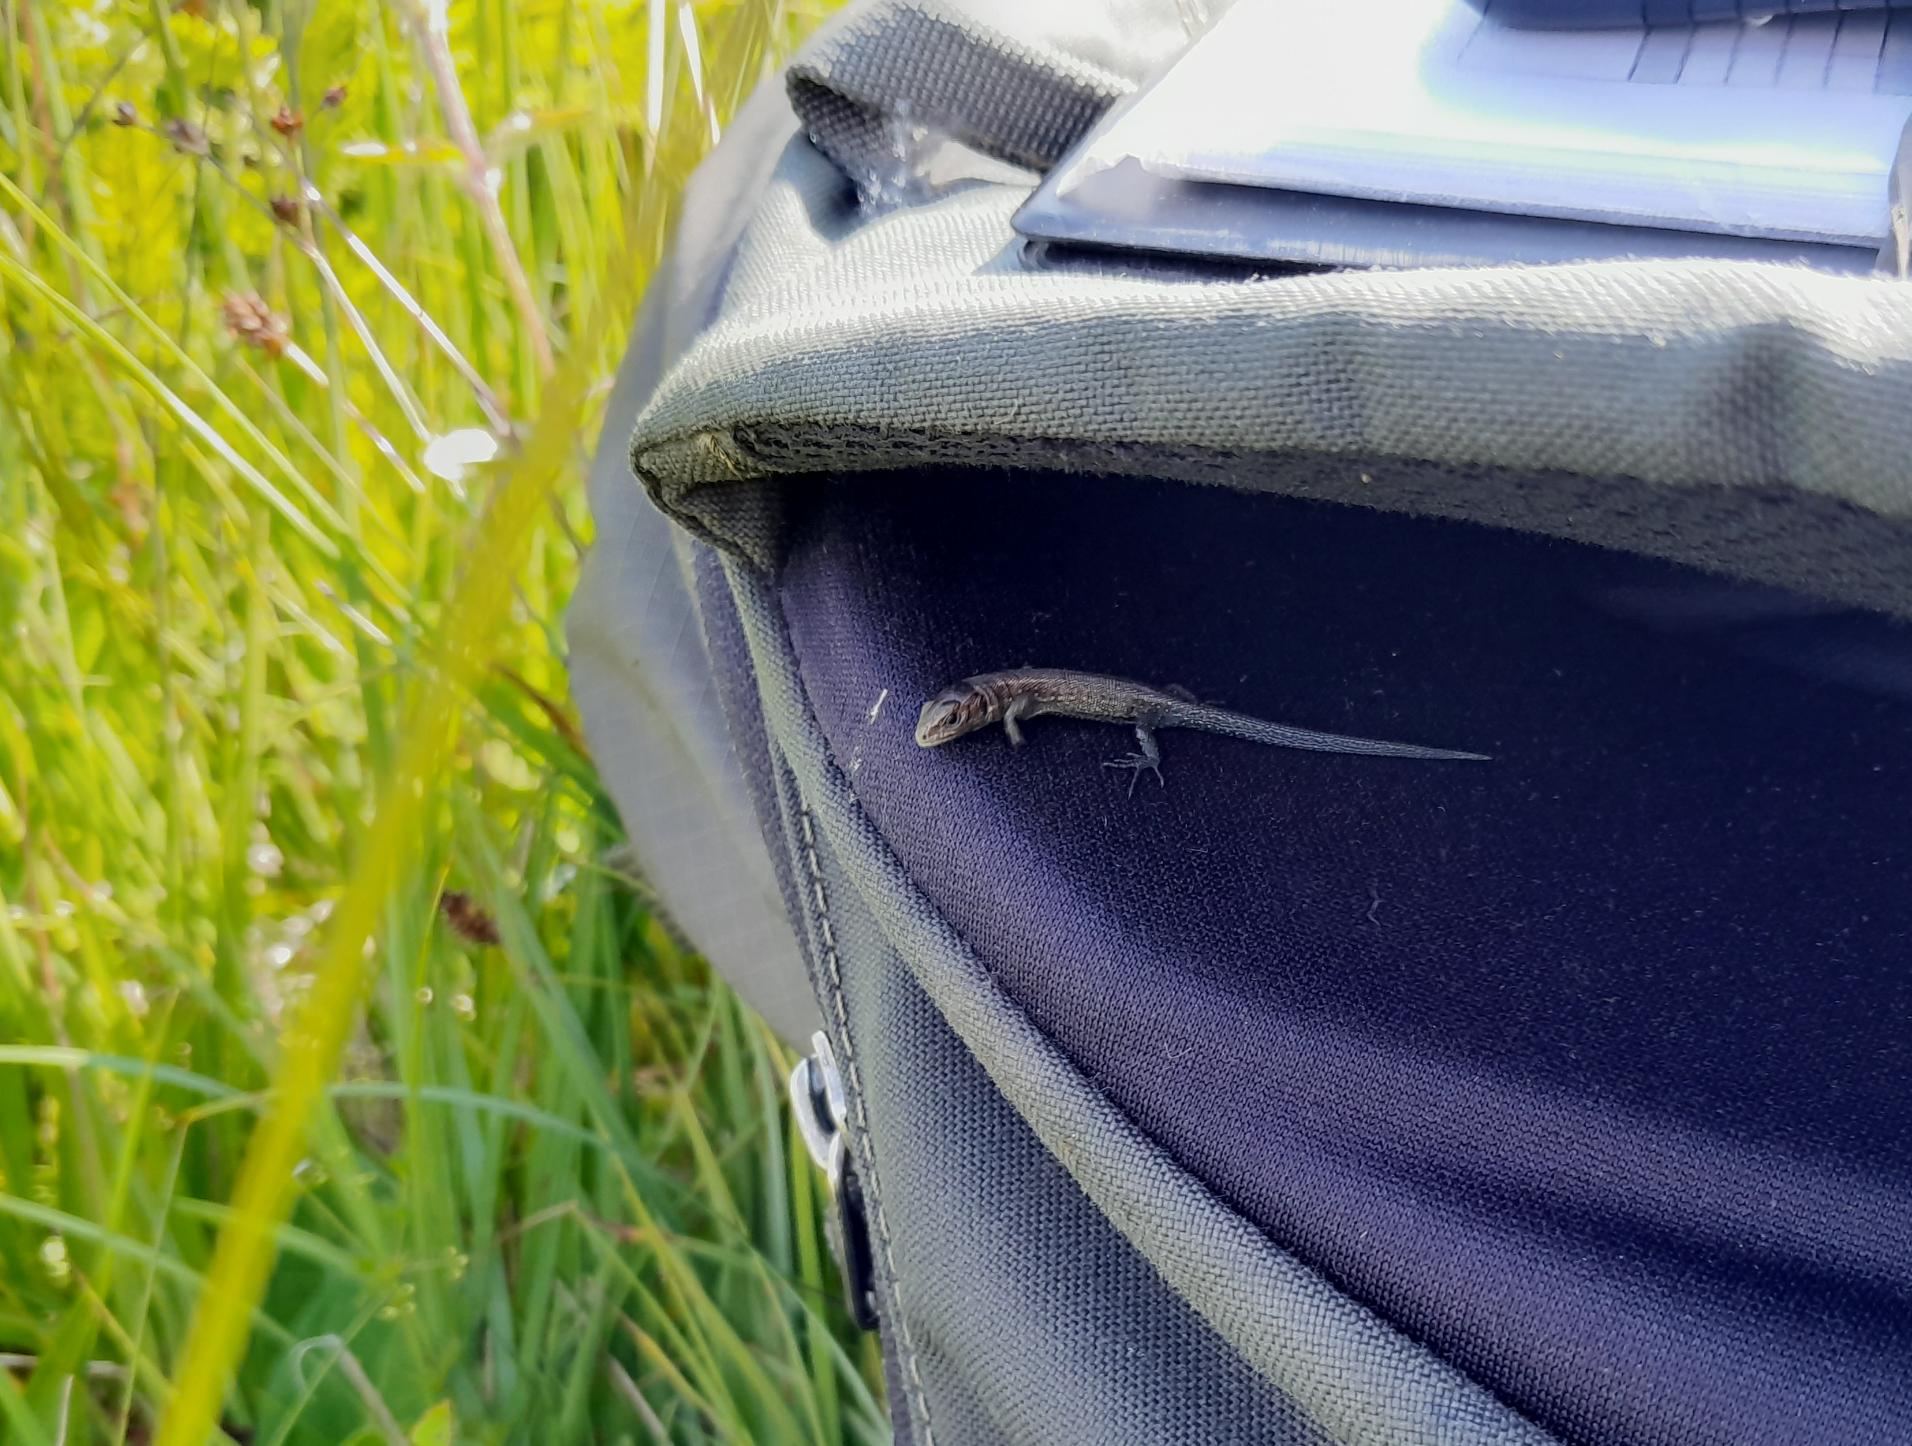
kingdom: Animalia
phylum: Chordata
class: Squamata
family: Lacertidae
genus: Zootoca
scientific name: Zootoca vivipara
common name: Skovfirben
